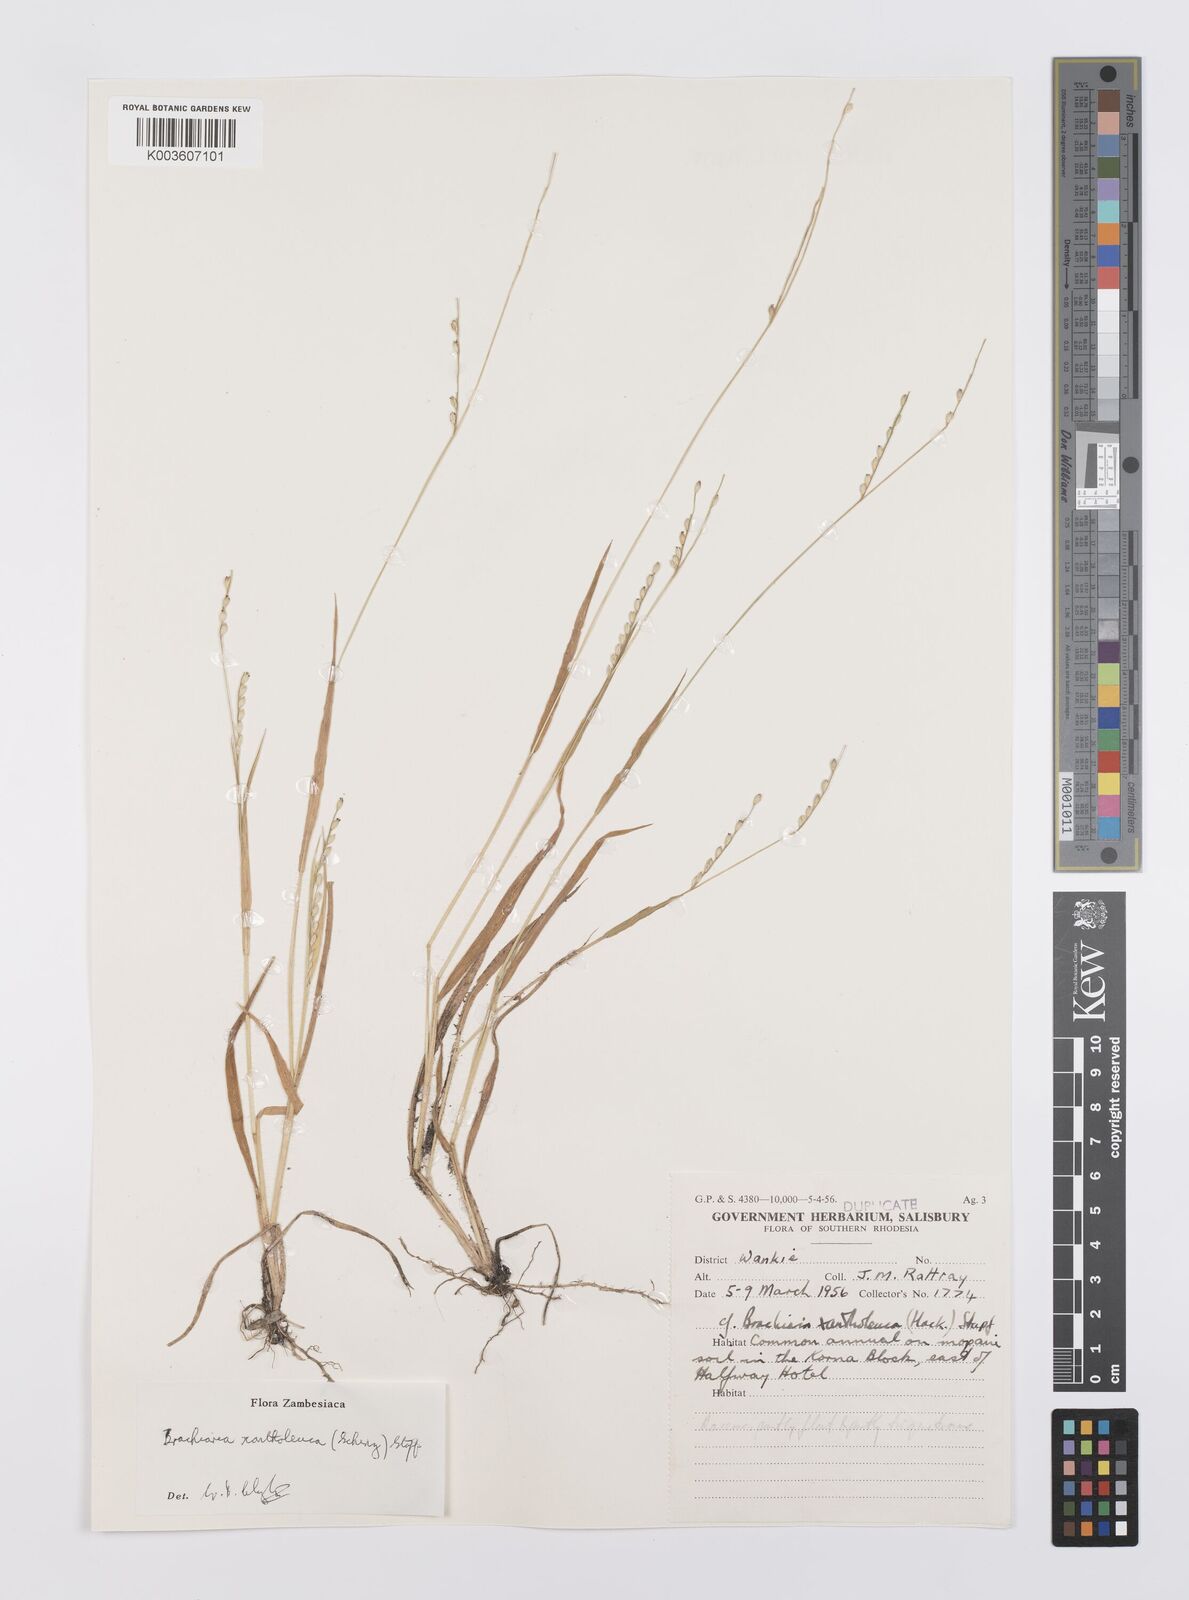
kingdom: Plantae
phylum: Tracheophyta
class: Liliopsida
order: Poales
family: Poaceae
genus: Urochloa
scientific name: Urochloa xantholeuca
